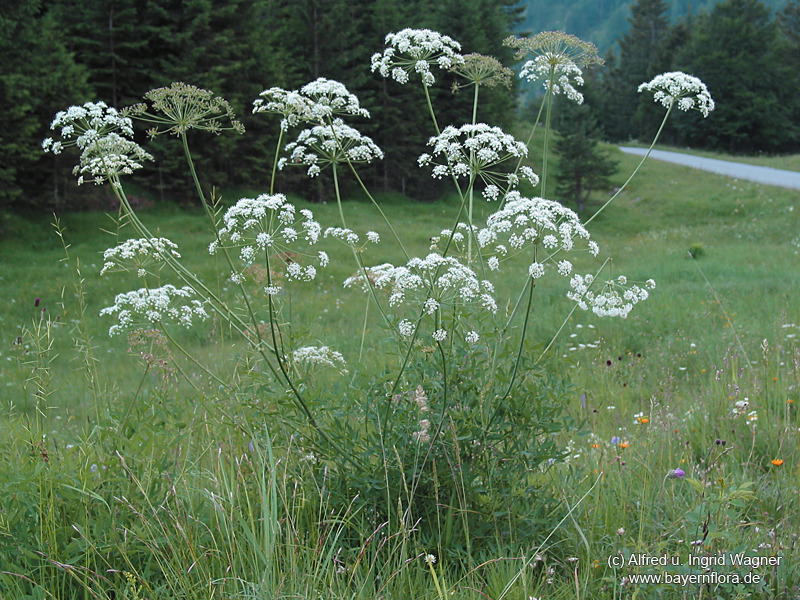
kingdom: Plantae
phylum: Tracheophyta
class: Magnoliopsida
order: Apiales
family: Apiaceae
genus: Siler
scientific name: Siler montanum
